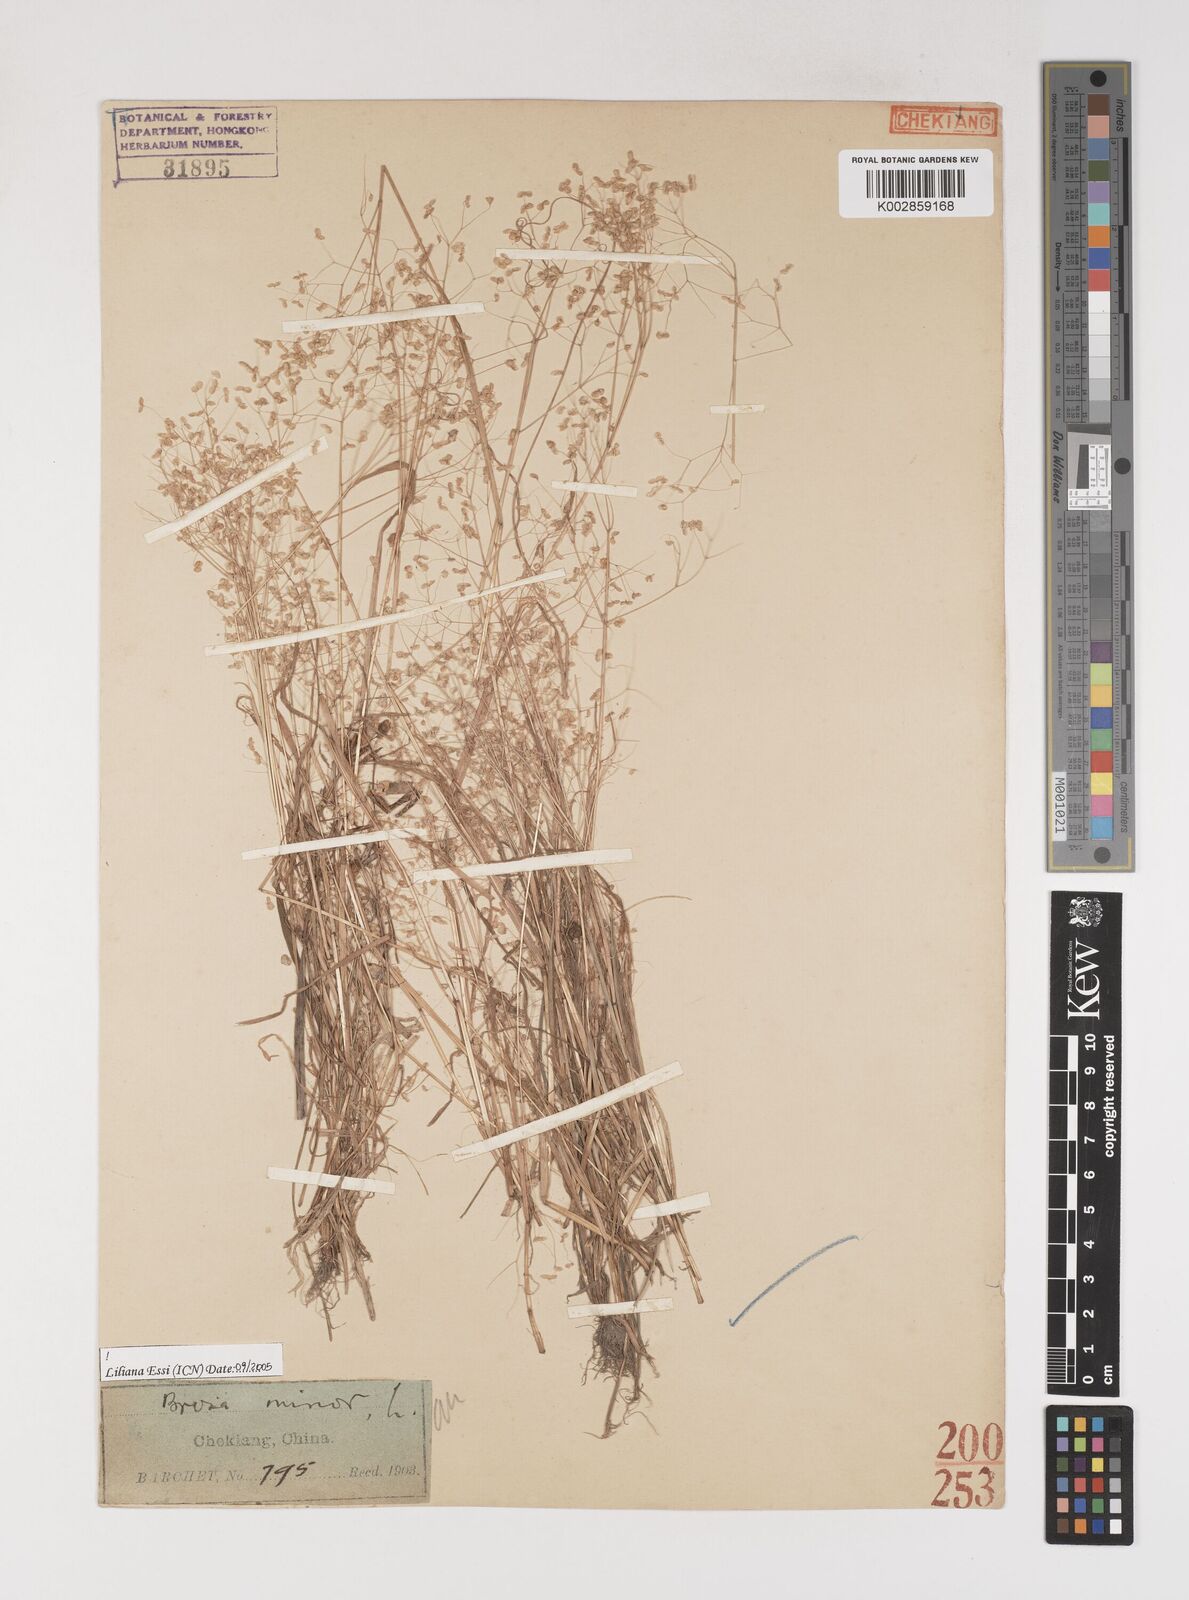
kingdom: Plantae
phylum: Tracheophyta
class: Liliopsida
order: Poales
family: Poaceae
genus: Briza
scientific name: Briza minor
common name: Lesser quaking-grass
